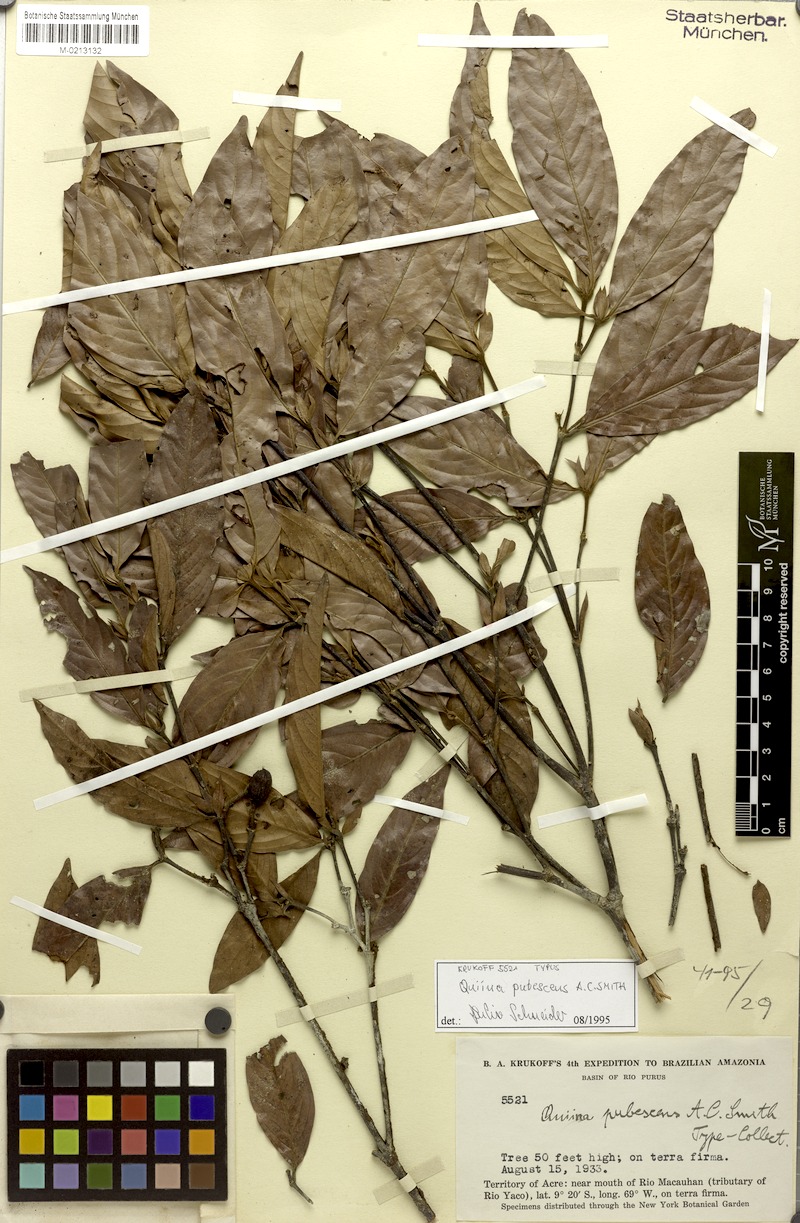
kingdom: Plantae
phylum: Tracheophyta
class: Magnoliopsida
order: Malpighiales
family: Quiinaceae
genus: Quiina
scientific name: Quiina florida
